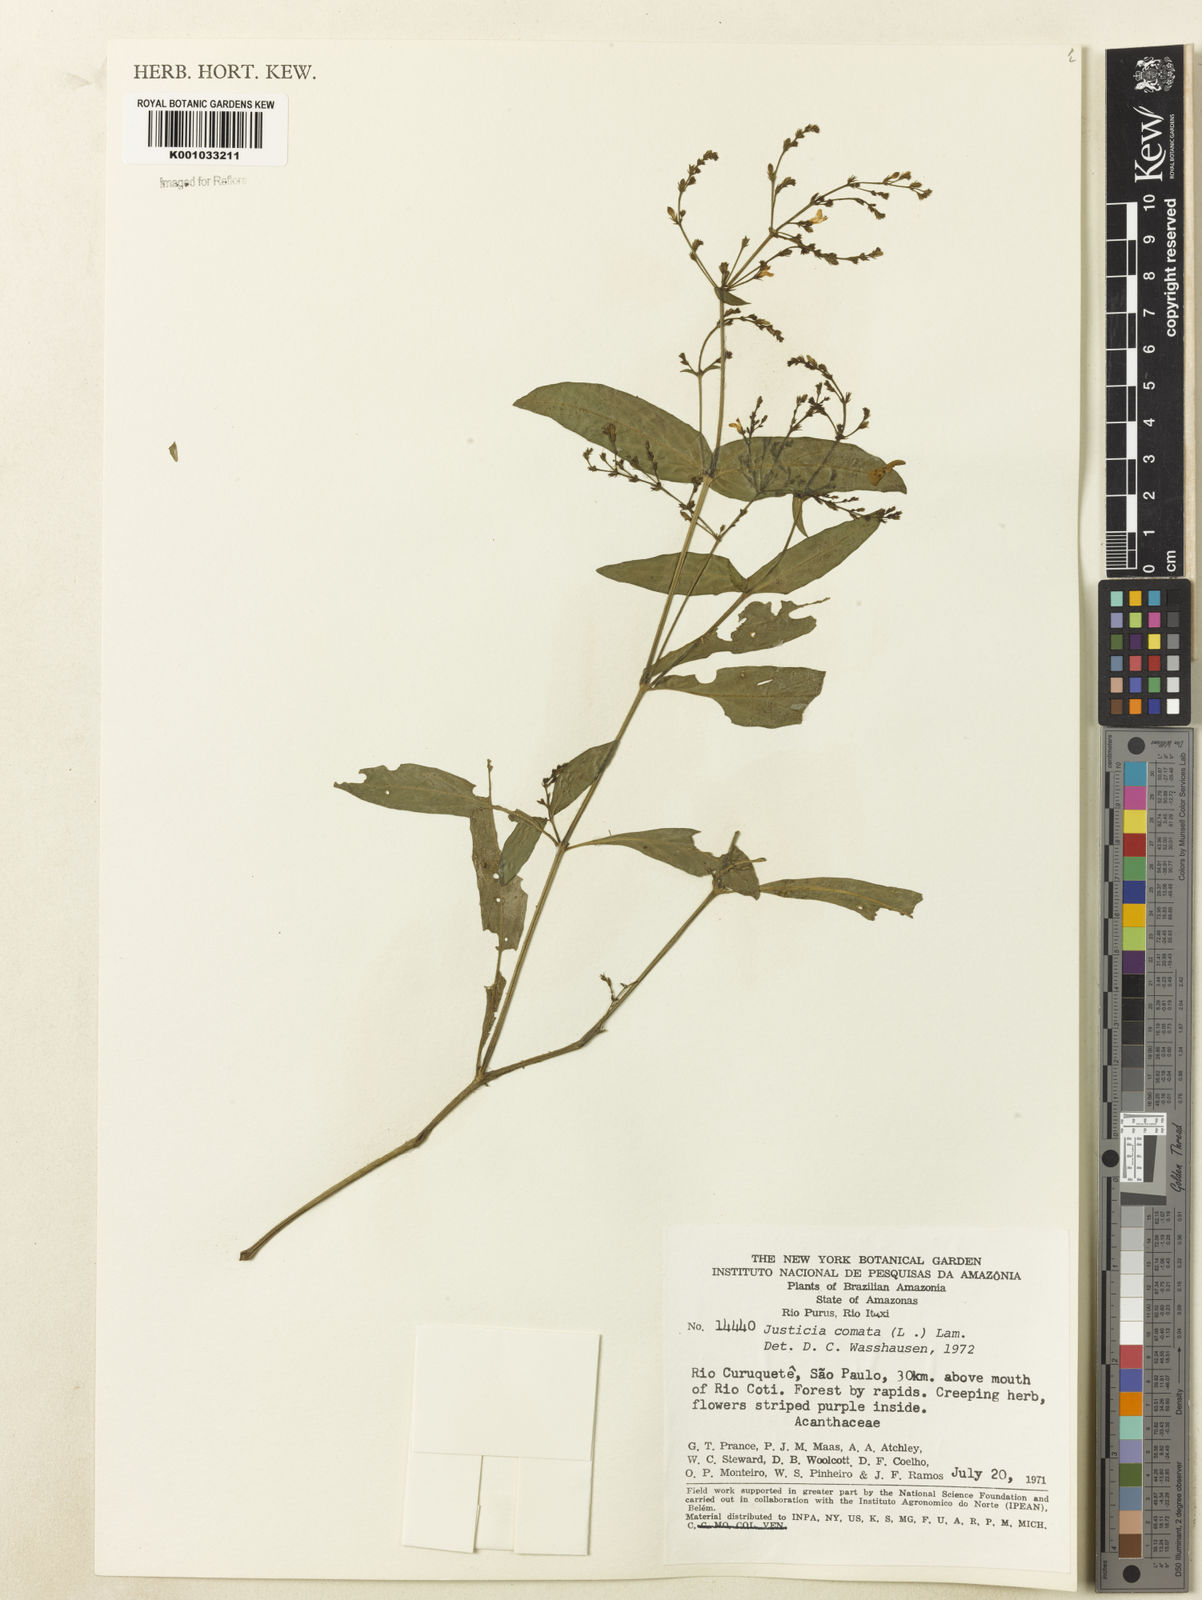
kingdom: Plantae
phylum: Tracheophyta
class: Magnoliopsida
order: Lamiales
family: Acanthaceae
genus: Dianthera
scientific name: Dianthera comata
